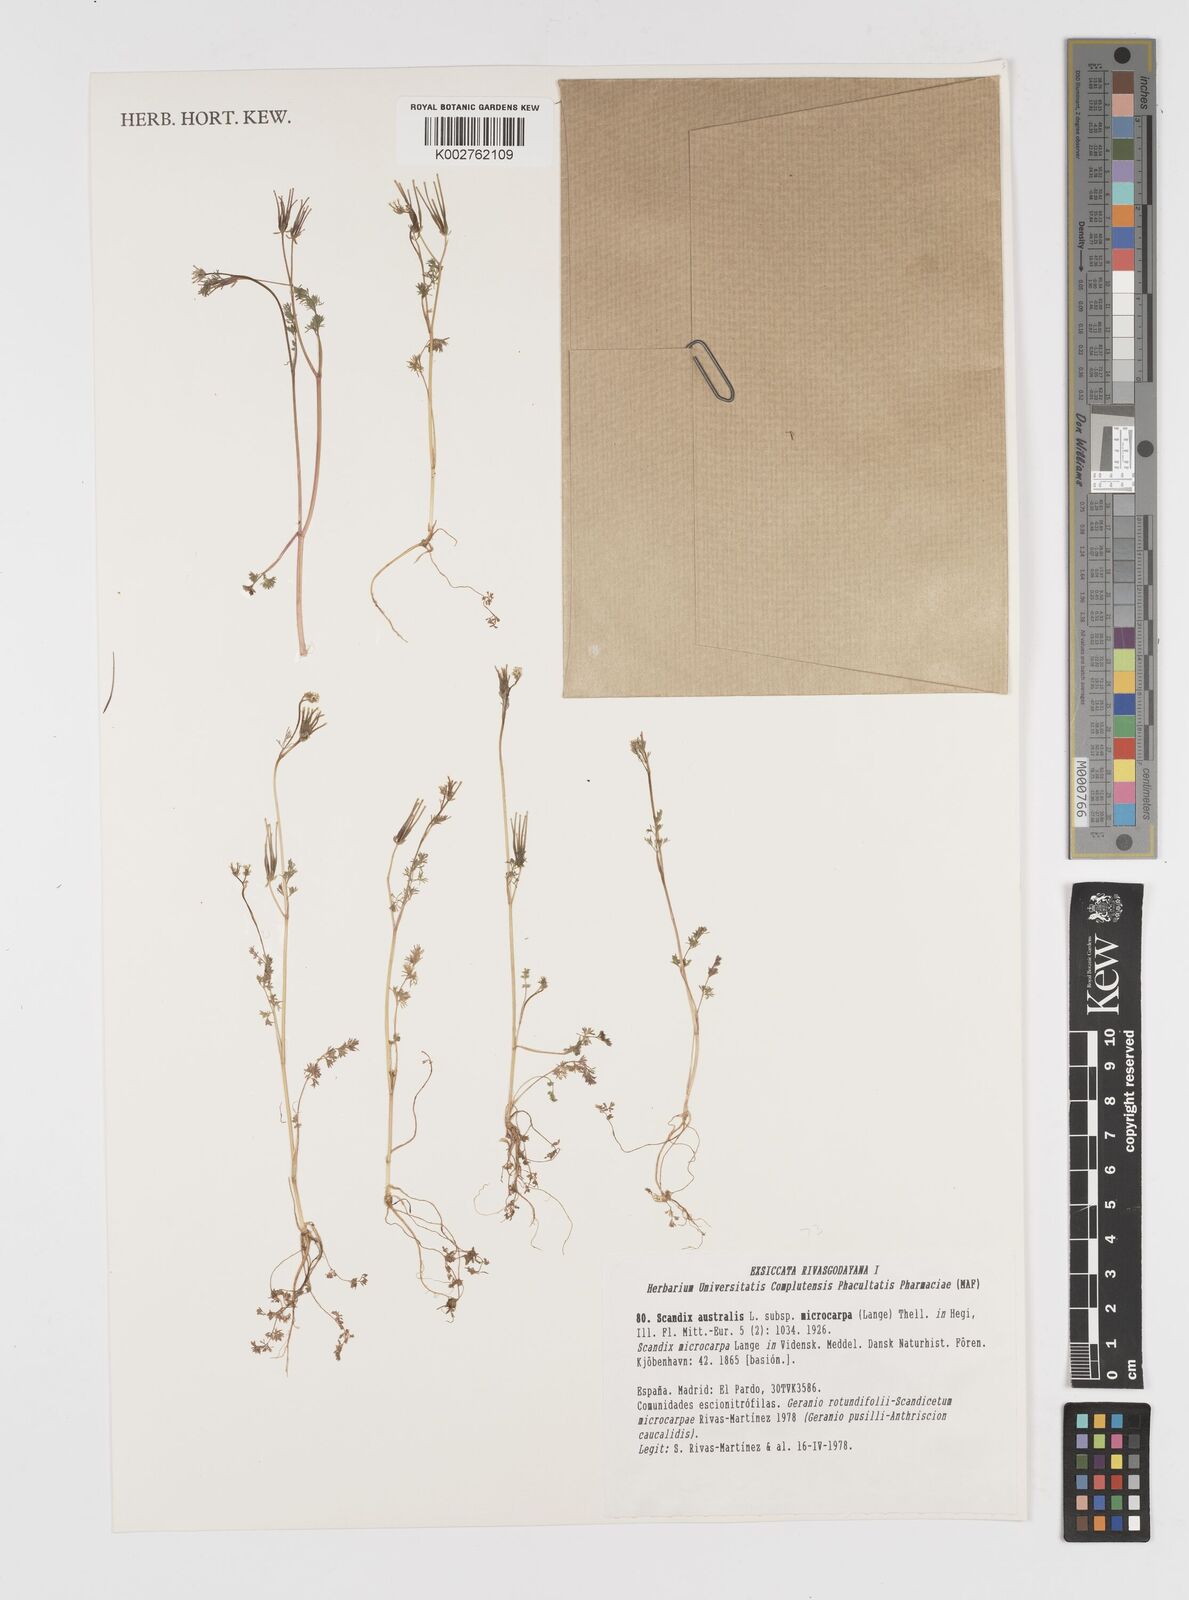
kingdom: Plantae
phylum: Tracheophyta
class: Magnoliopsida
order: Apiales
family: Apiaceae
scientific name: Apiaceae
